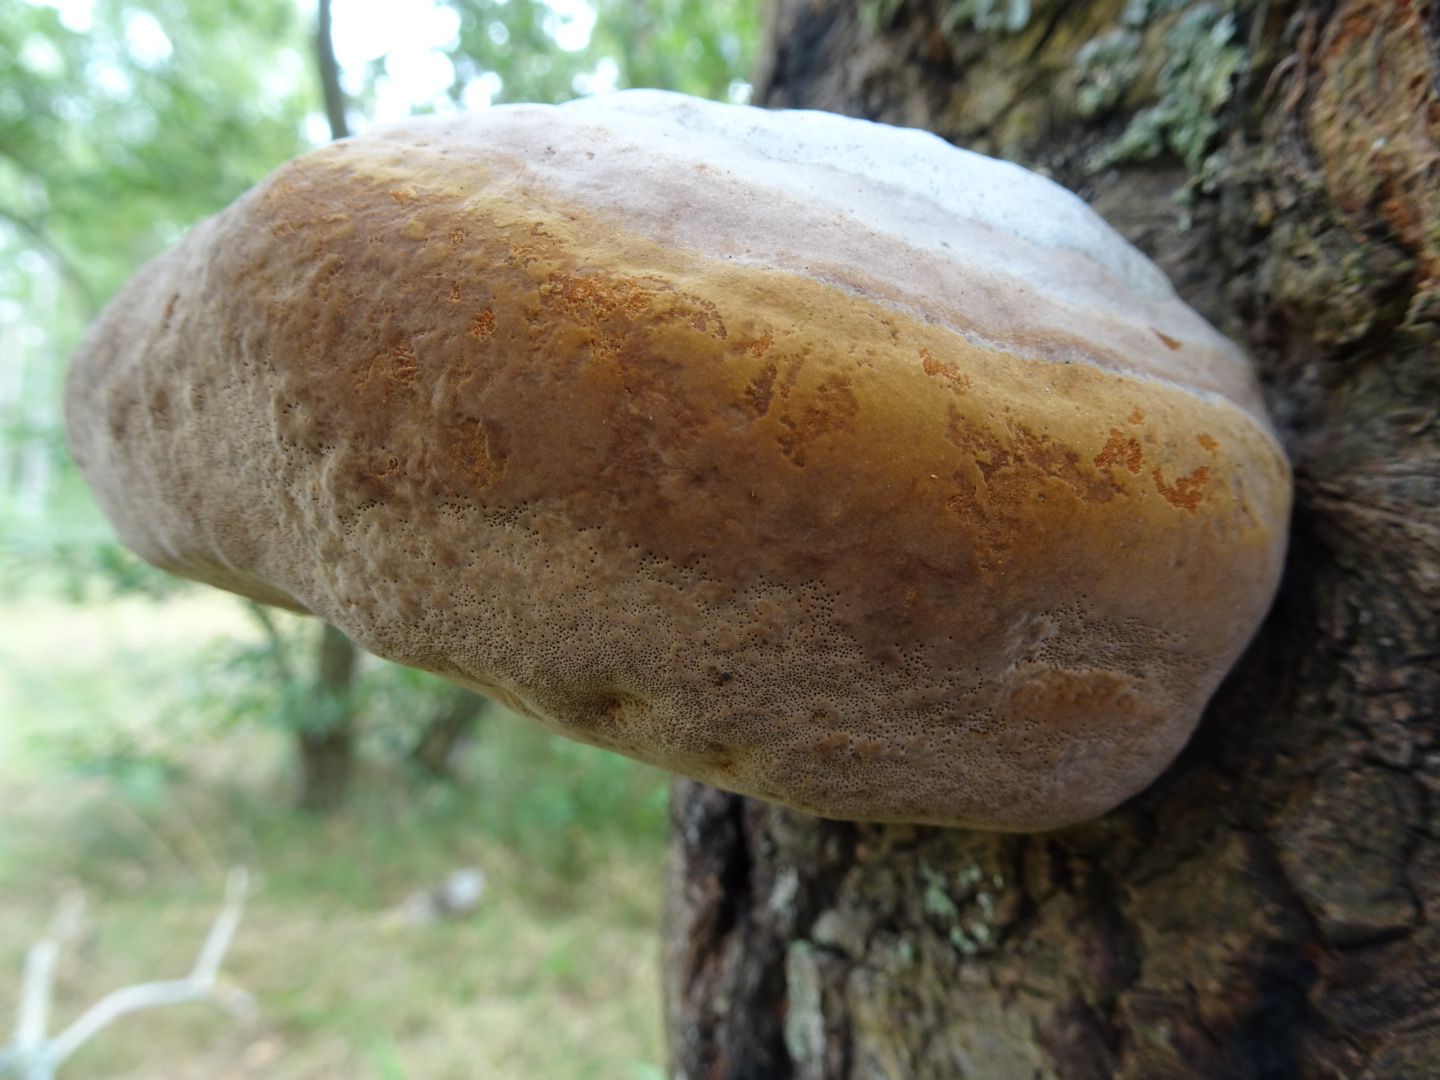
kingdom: Fungi
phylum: Basidiomycota
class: Agaricomycetes
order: Hymenochaetales
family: Hymenochaetaceae
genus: Phellinus
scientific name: Phellinus populicola
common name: poppel-ildporesvamp
